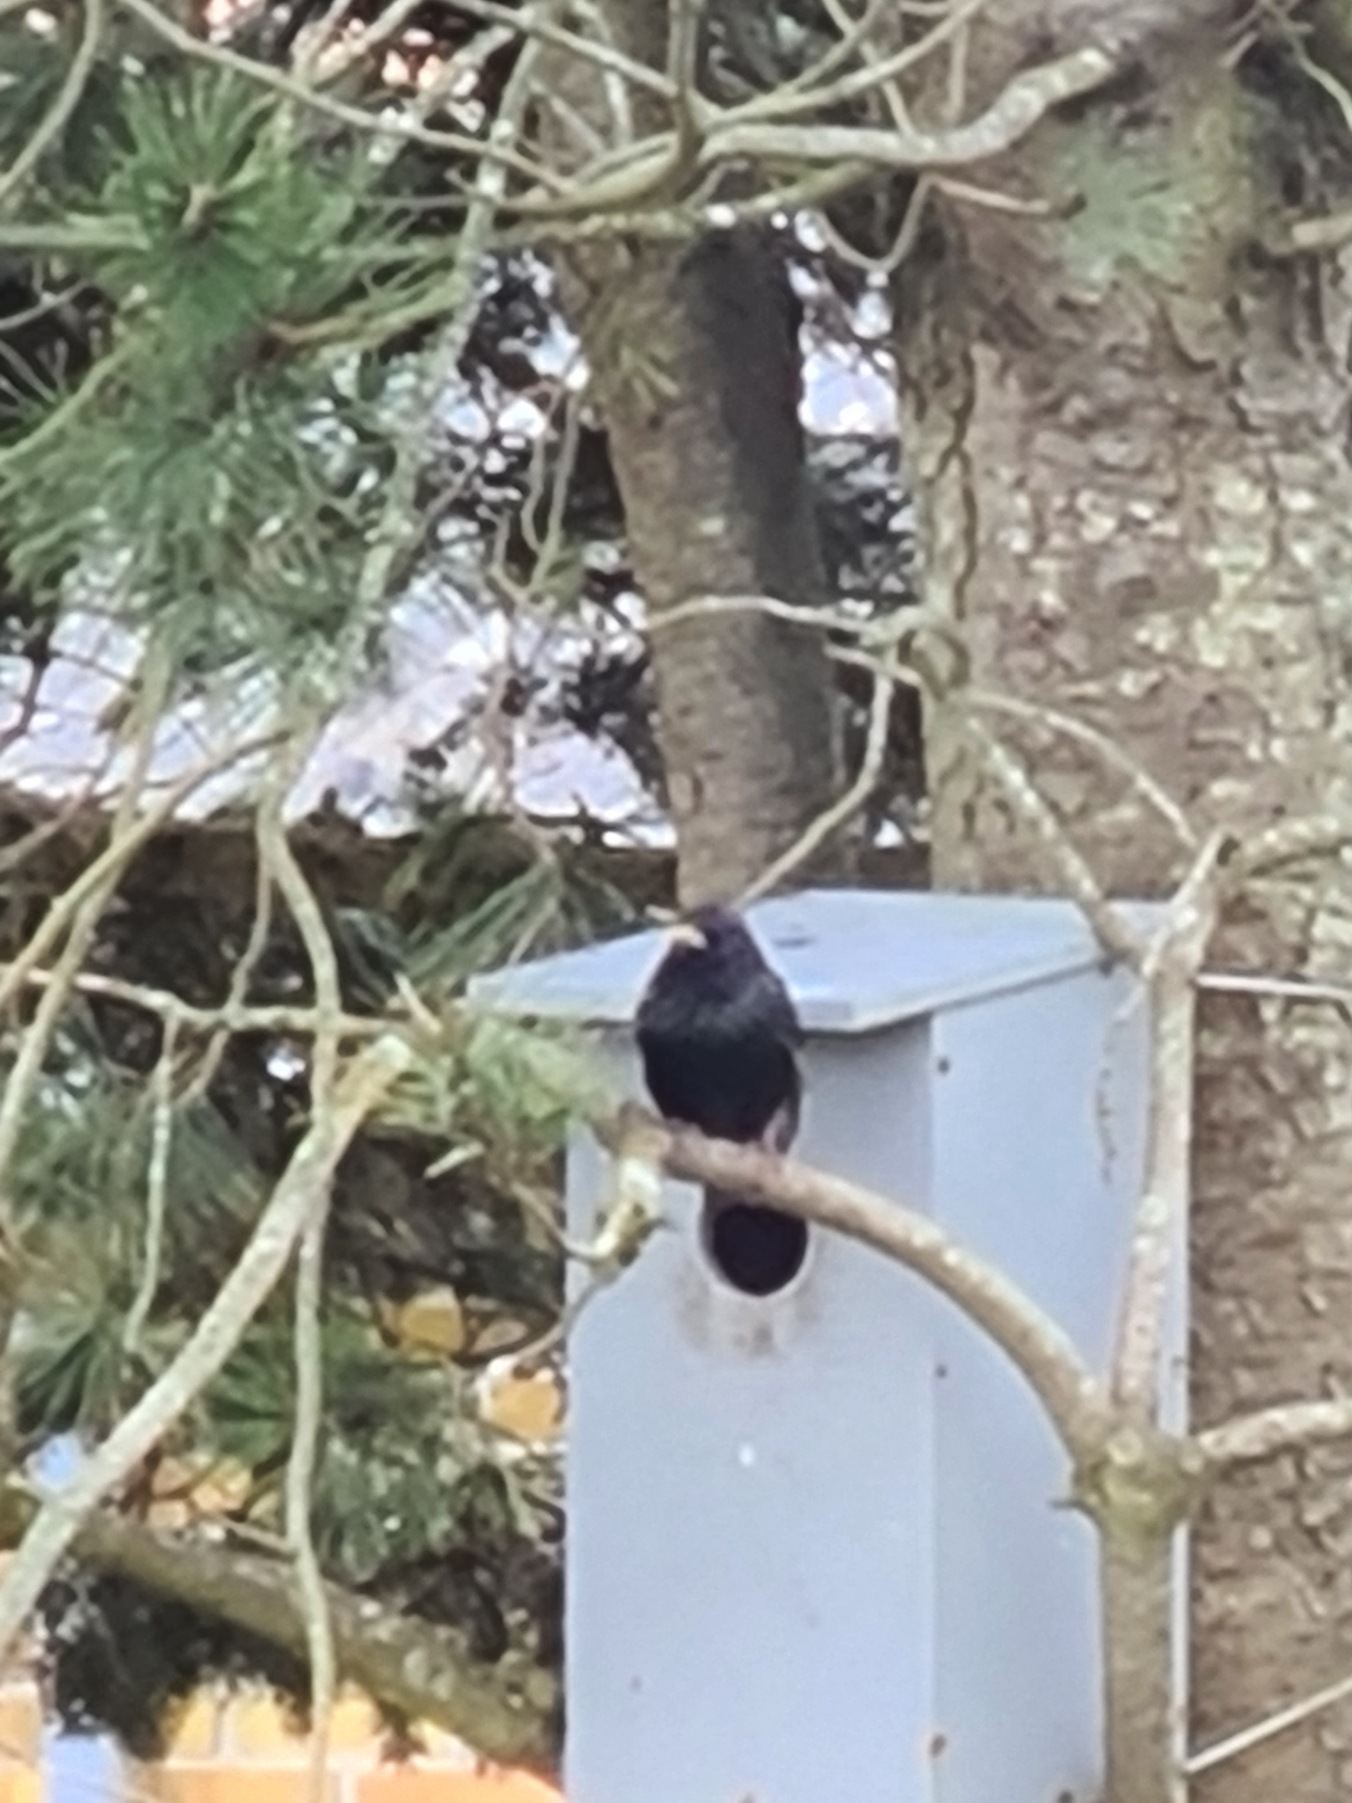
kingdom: Animalia
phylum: Chordata
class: Aves
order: Passeriformes
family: Sturnidae
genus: Sturnus
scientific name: Sturnus vulgaris
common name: Stær
